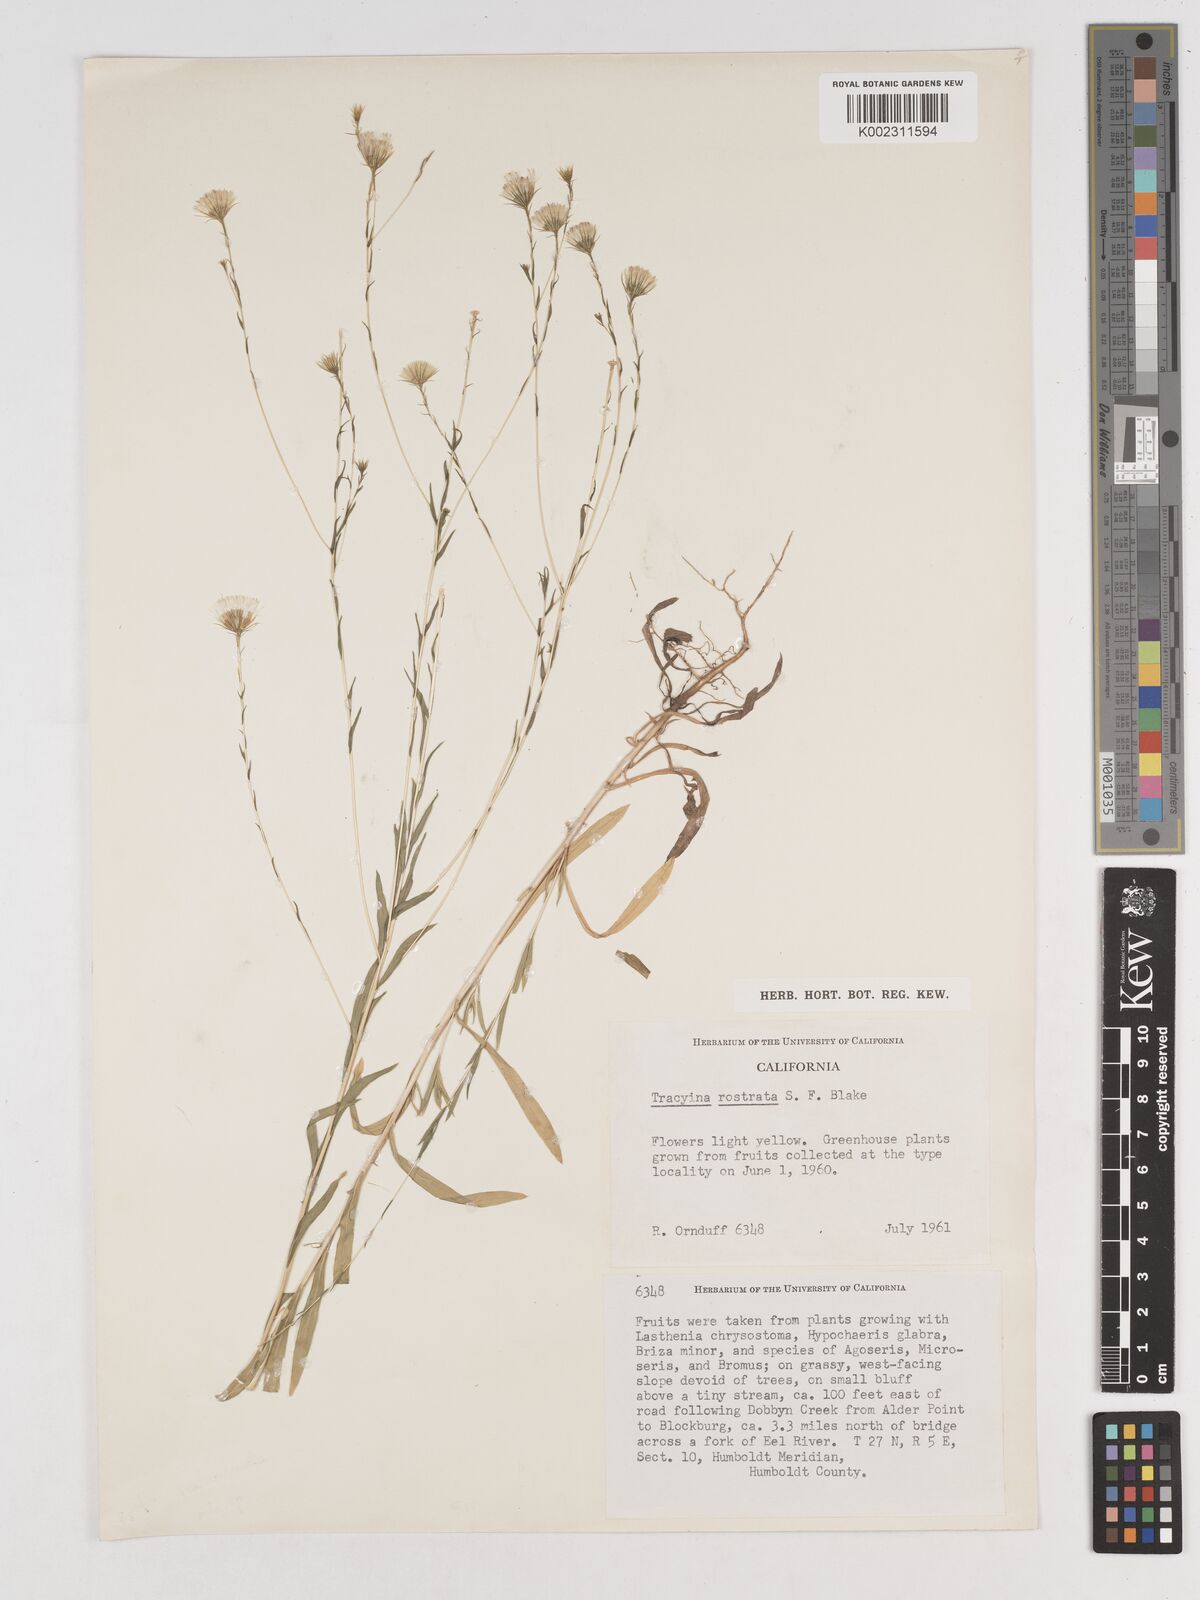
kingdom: Plantae
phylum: Tracheophyta
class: Magnoliopsida
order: Asterales
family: Asteraceae
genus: Tracyina
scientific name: Tracyina rostrata
